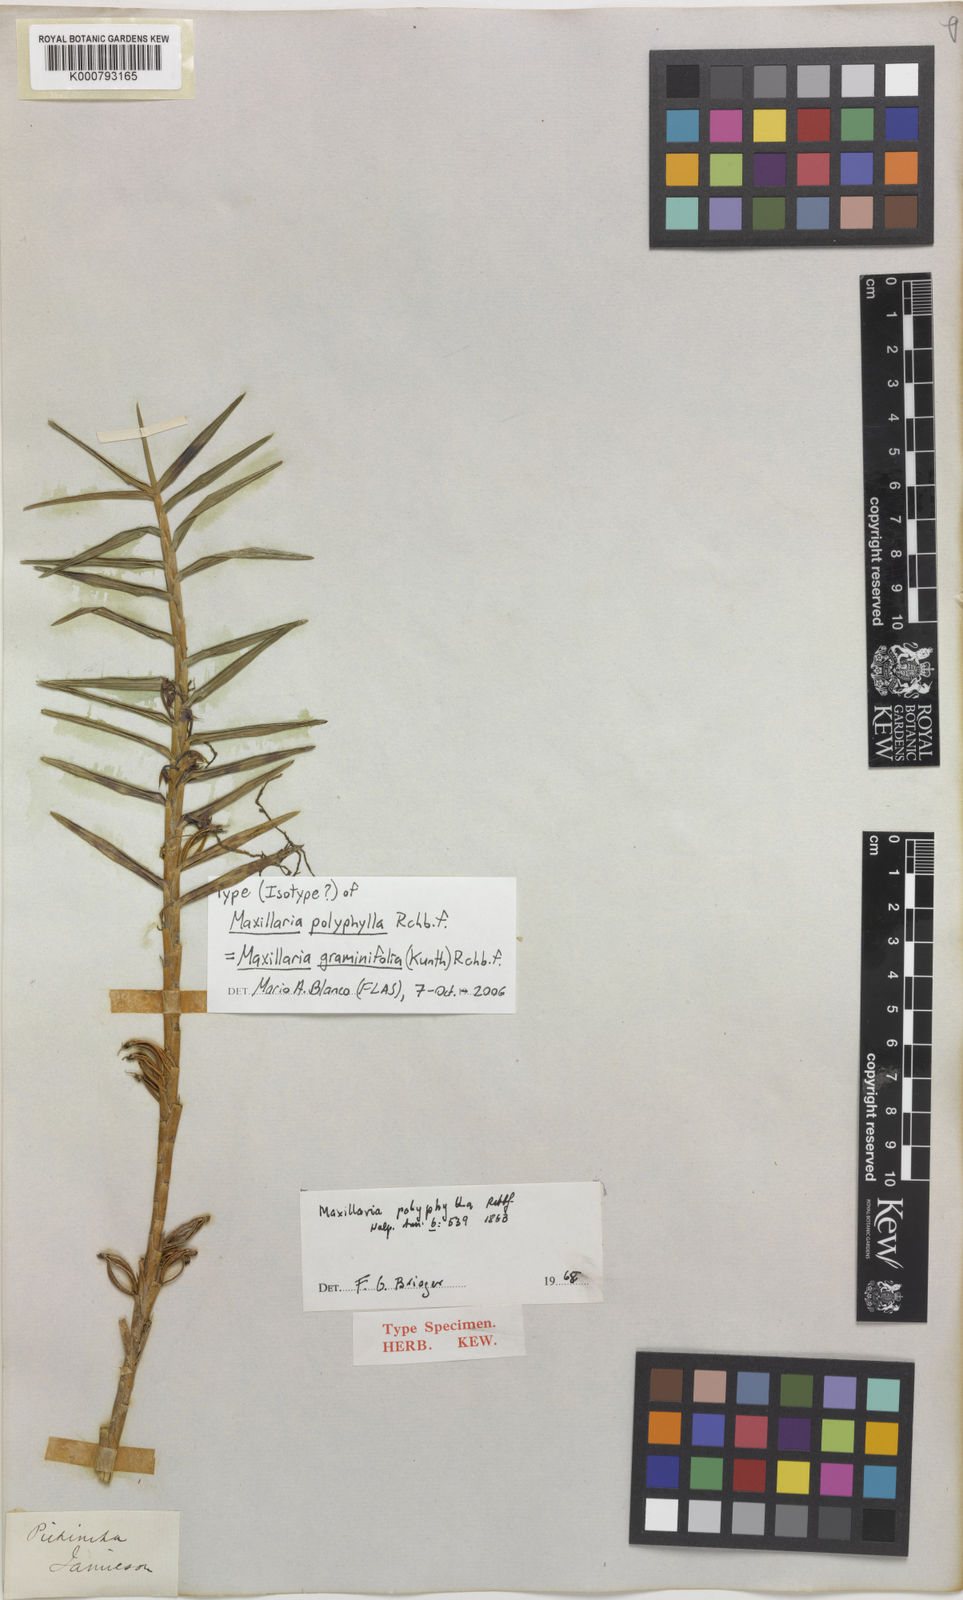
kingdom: Plantae
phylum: Tracheophyta
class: Liliopsida
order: Asparagales
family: Orchidaceae
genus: Maxillaria
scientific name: Maxillaria graminifolia
